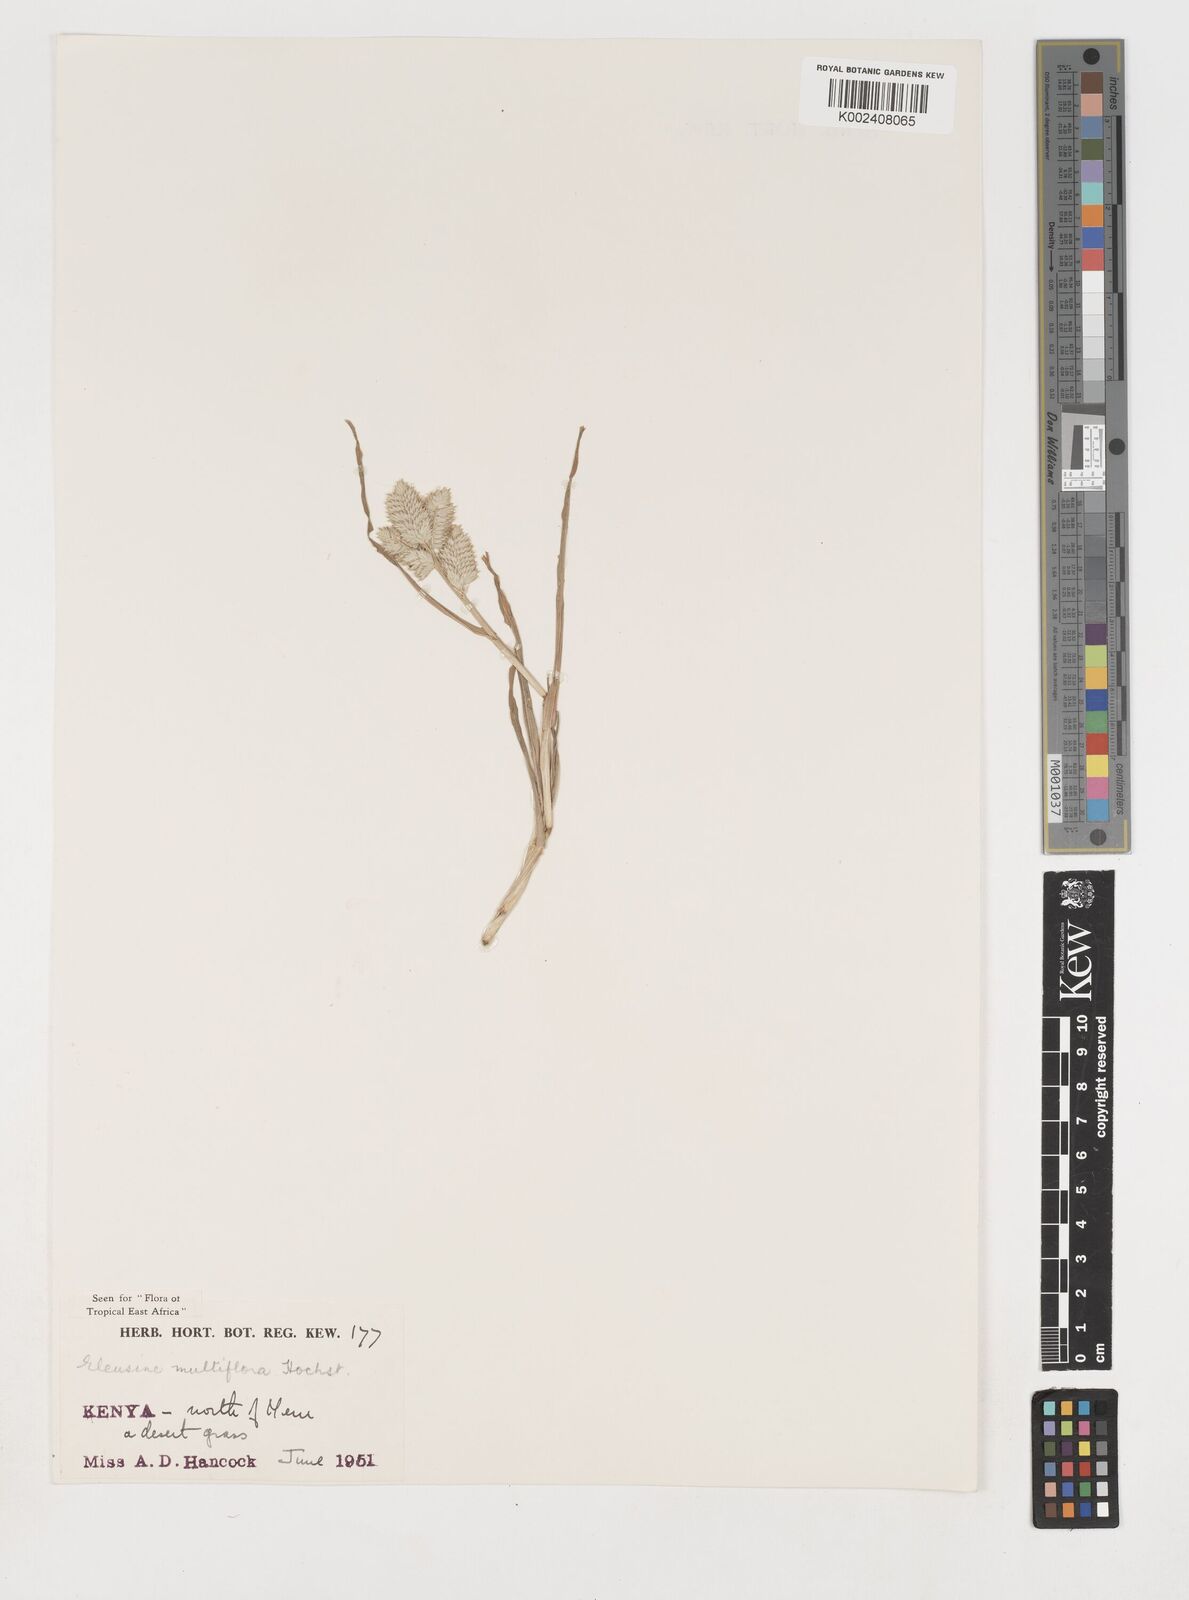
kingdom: Plantae
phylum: Tracheophyta
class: Liliopsida
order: Poales
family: Poaceae
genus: Eleusine
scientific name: Eleusine multiflora
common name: Fat-spiked yard-grass
